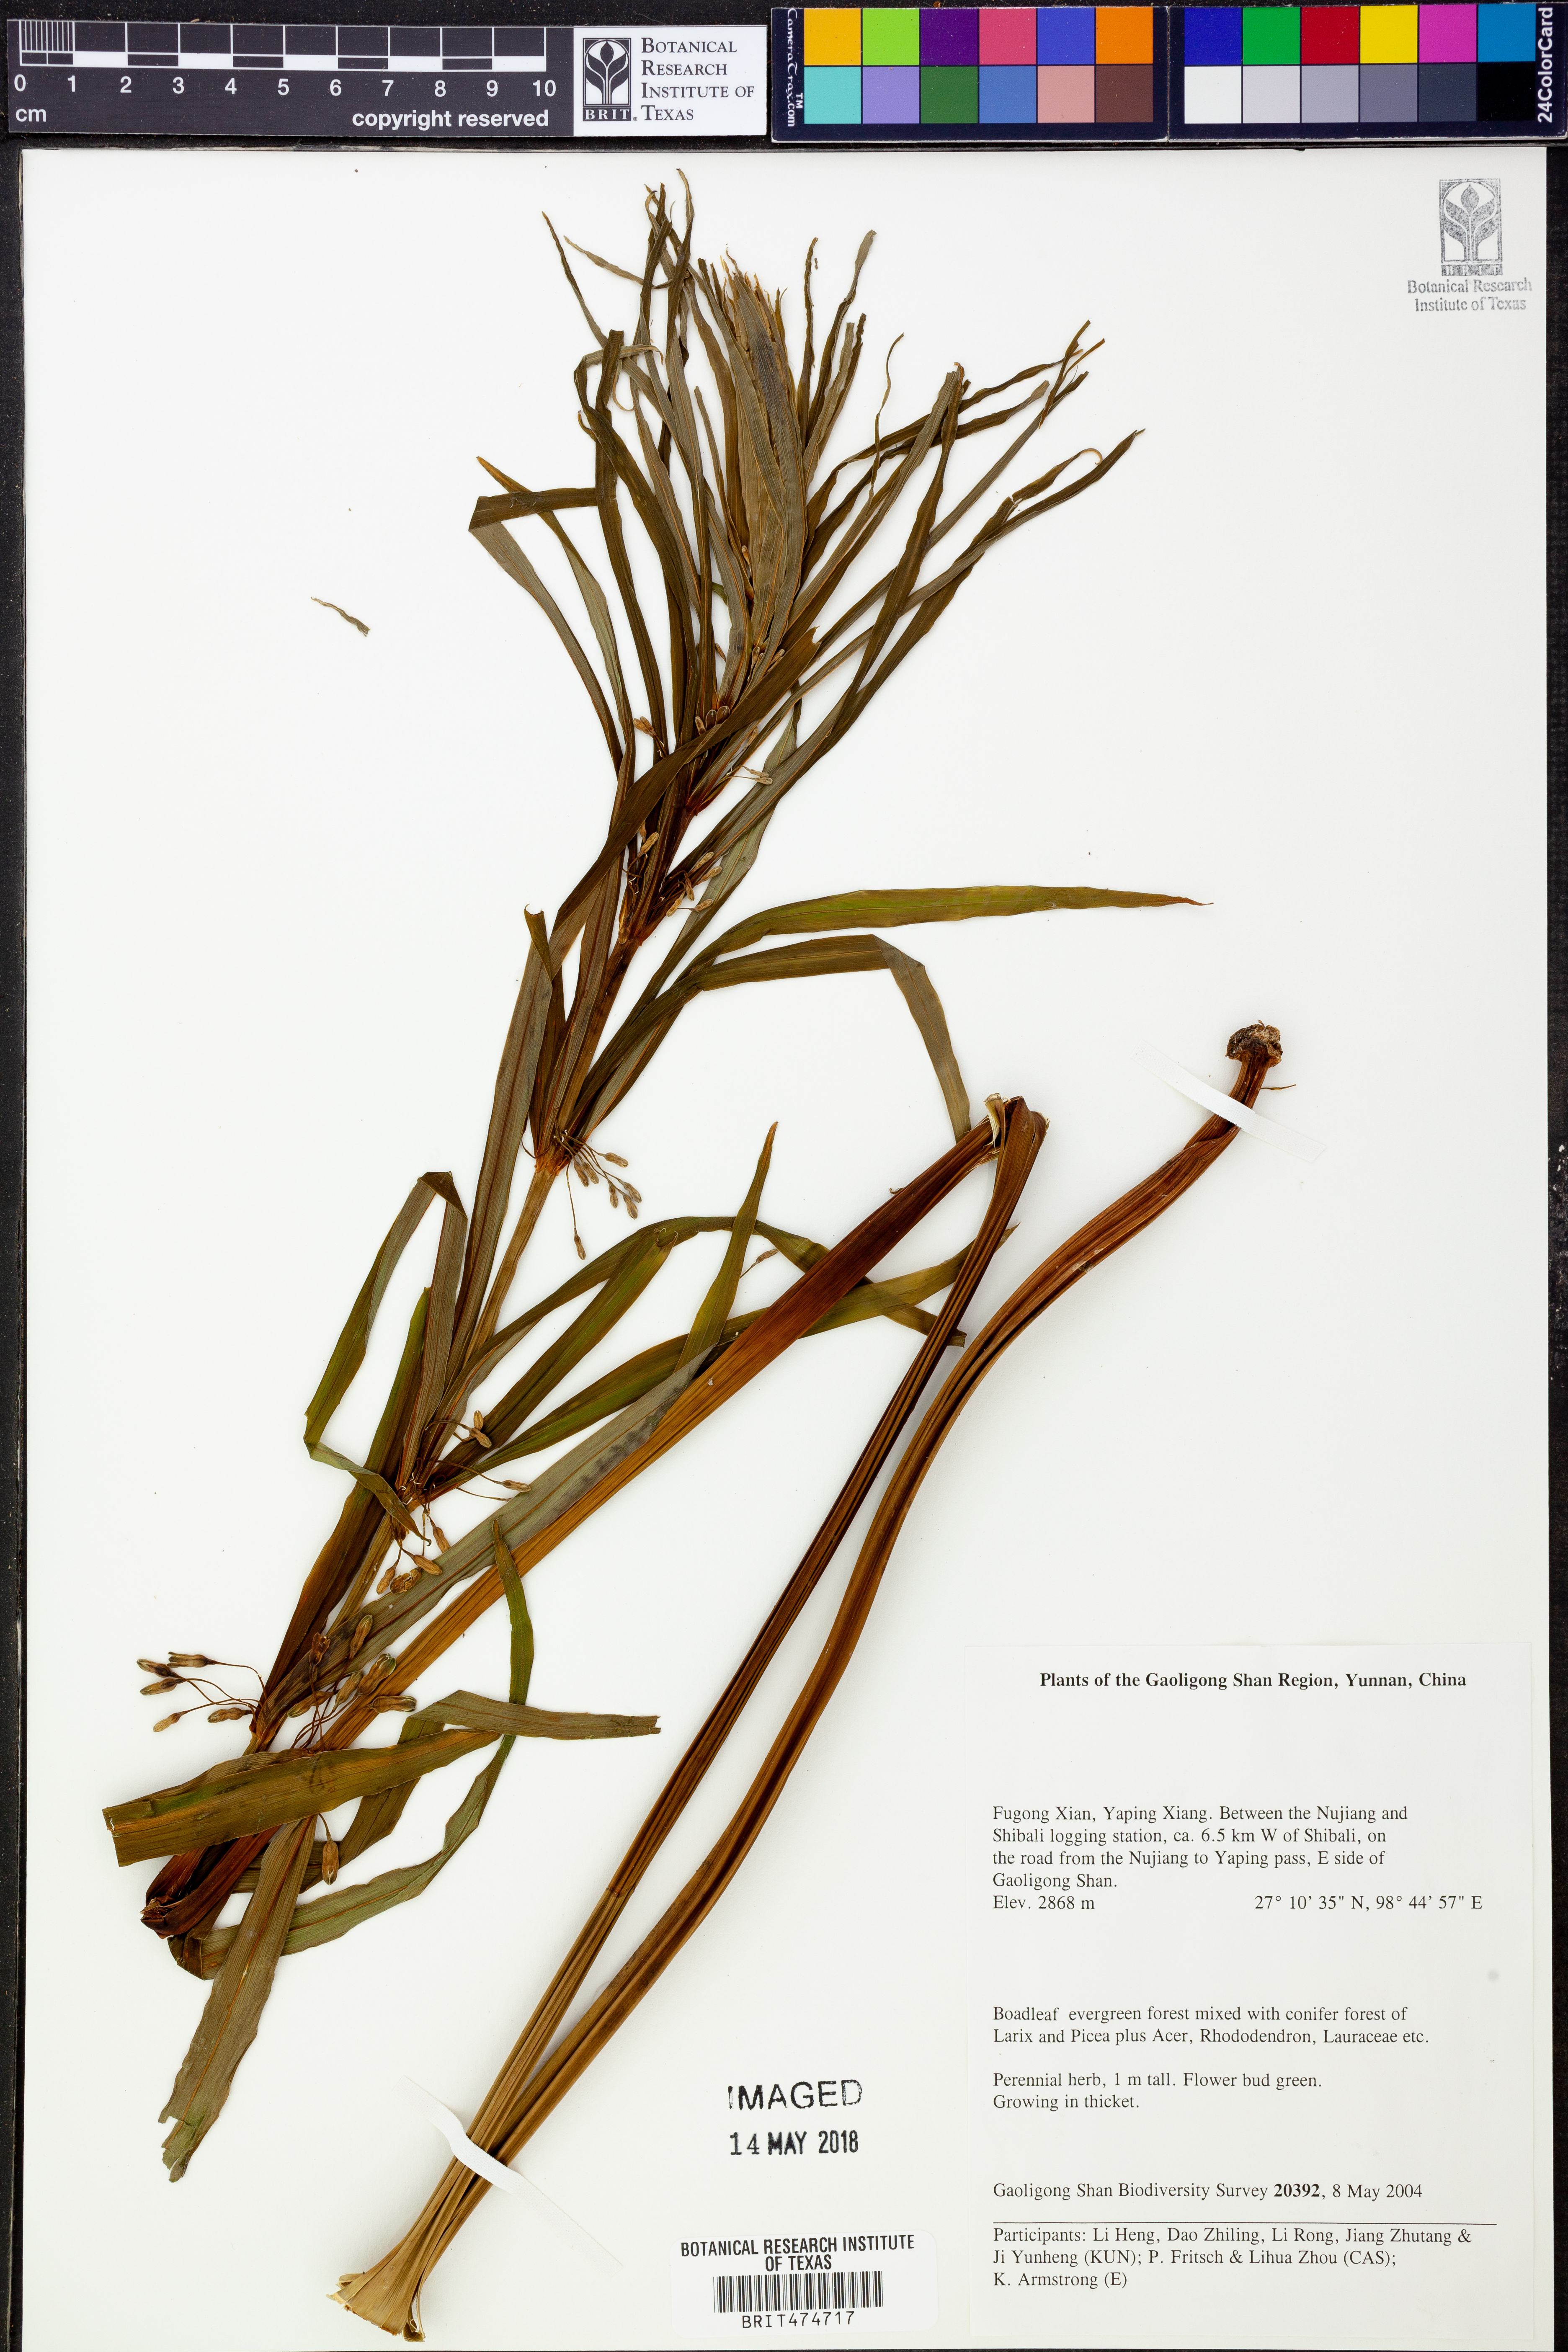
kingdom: Plantae
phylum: Tracheophyta
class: Liliopsida
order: Liliales
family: Liliaceae
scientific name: Liliaceae
